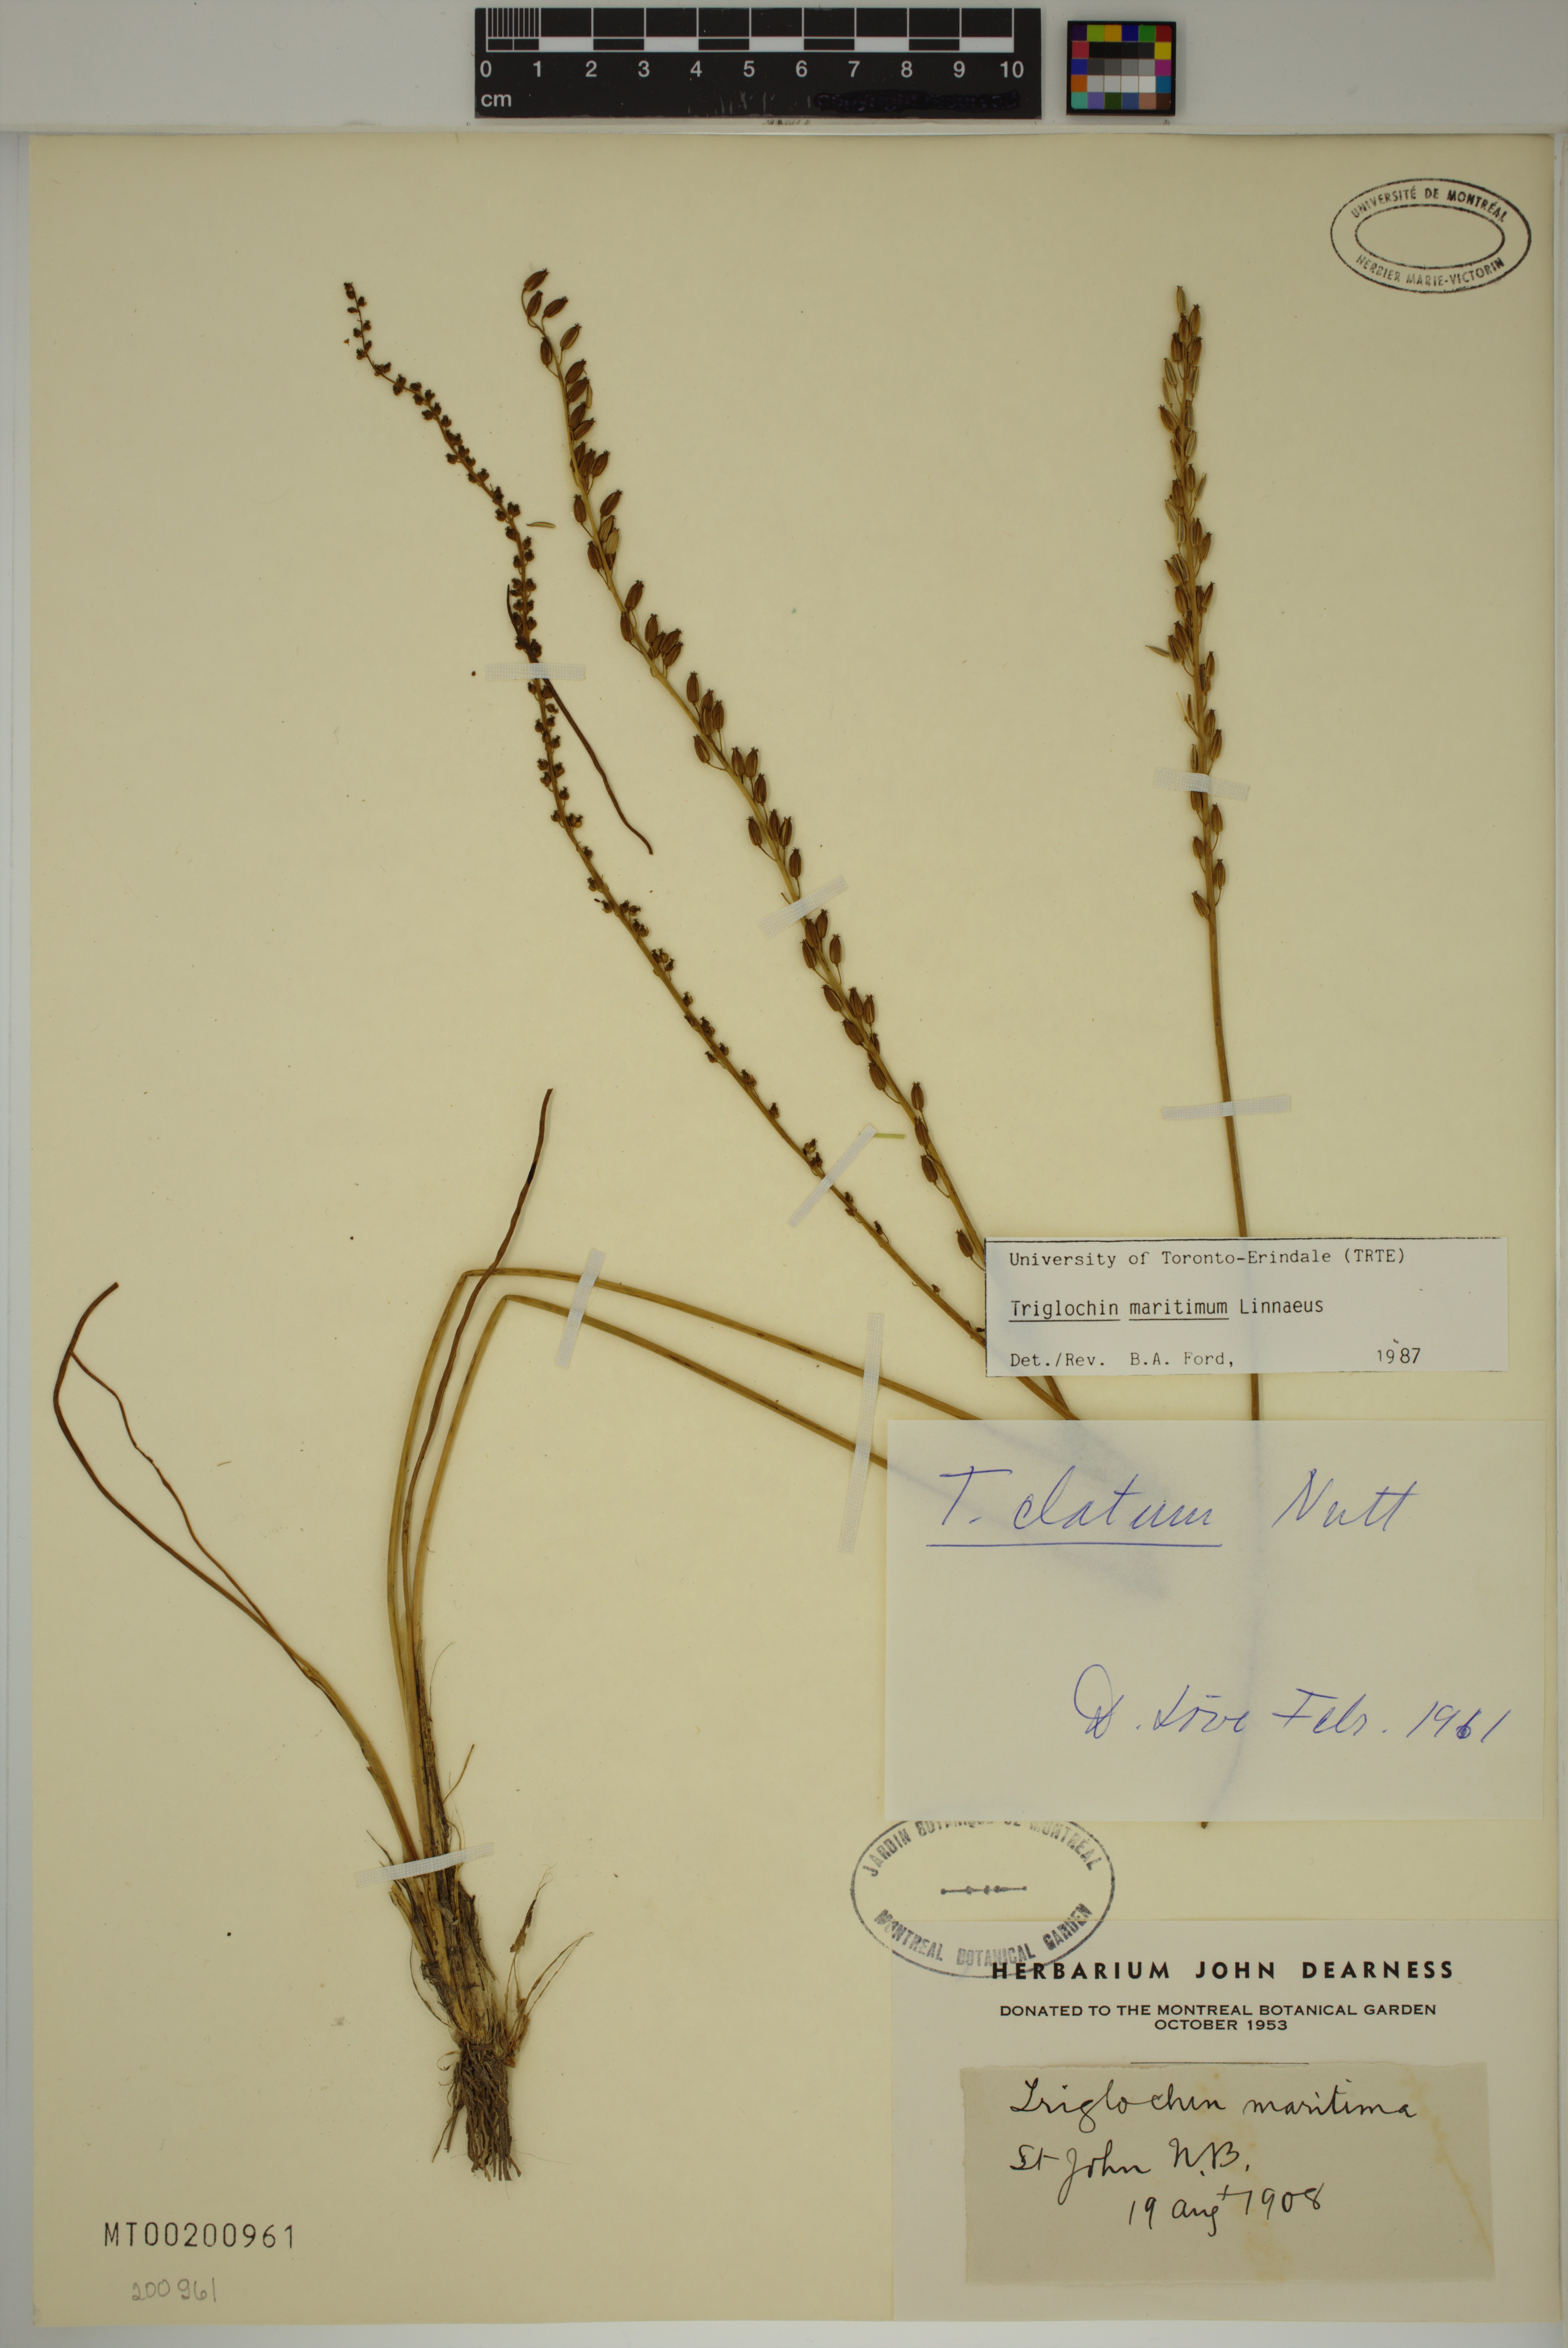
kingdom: Plantae
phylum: Tracheophyta
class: Liliopsida
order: Alismatales
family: Juncaginaceae
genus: Triglochin
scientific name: Triglochin maritima
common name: Sea arrowgrass
